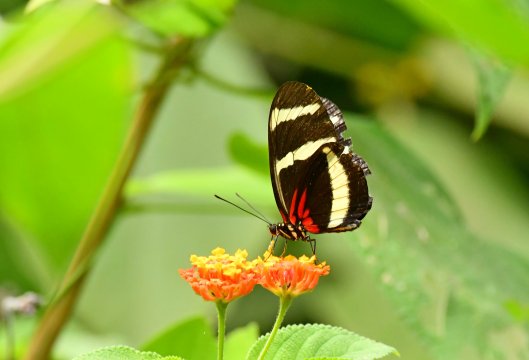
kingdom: Animalia
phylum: Arthropoda
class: Insecta
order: Lepidoptera
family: Nymphalidae
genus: Heliconius
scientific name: Heliconius hewitsoni
